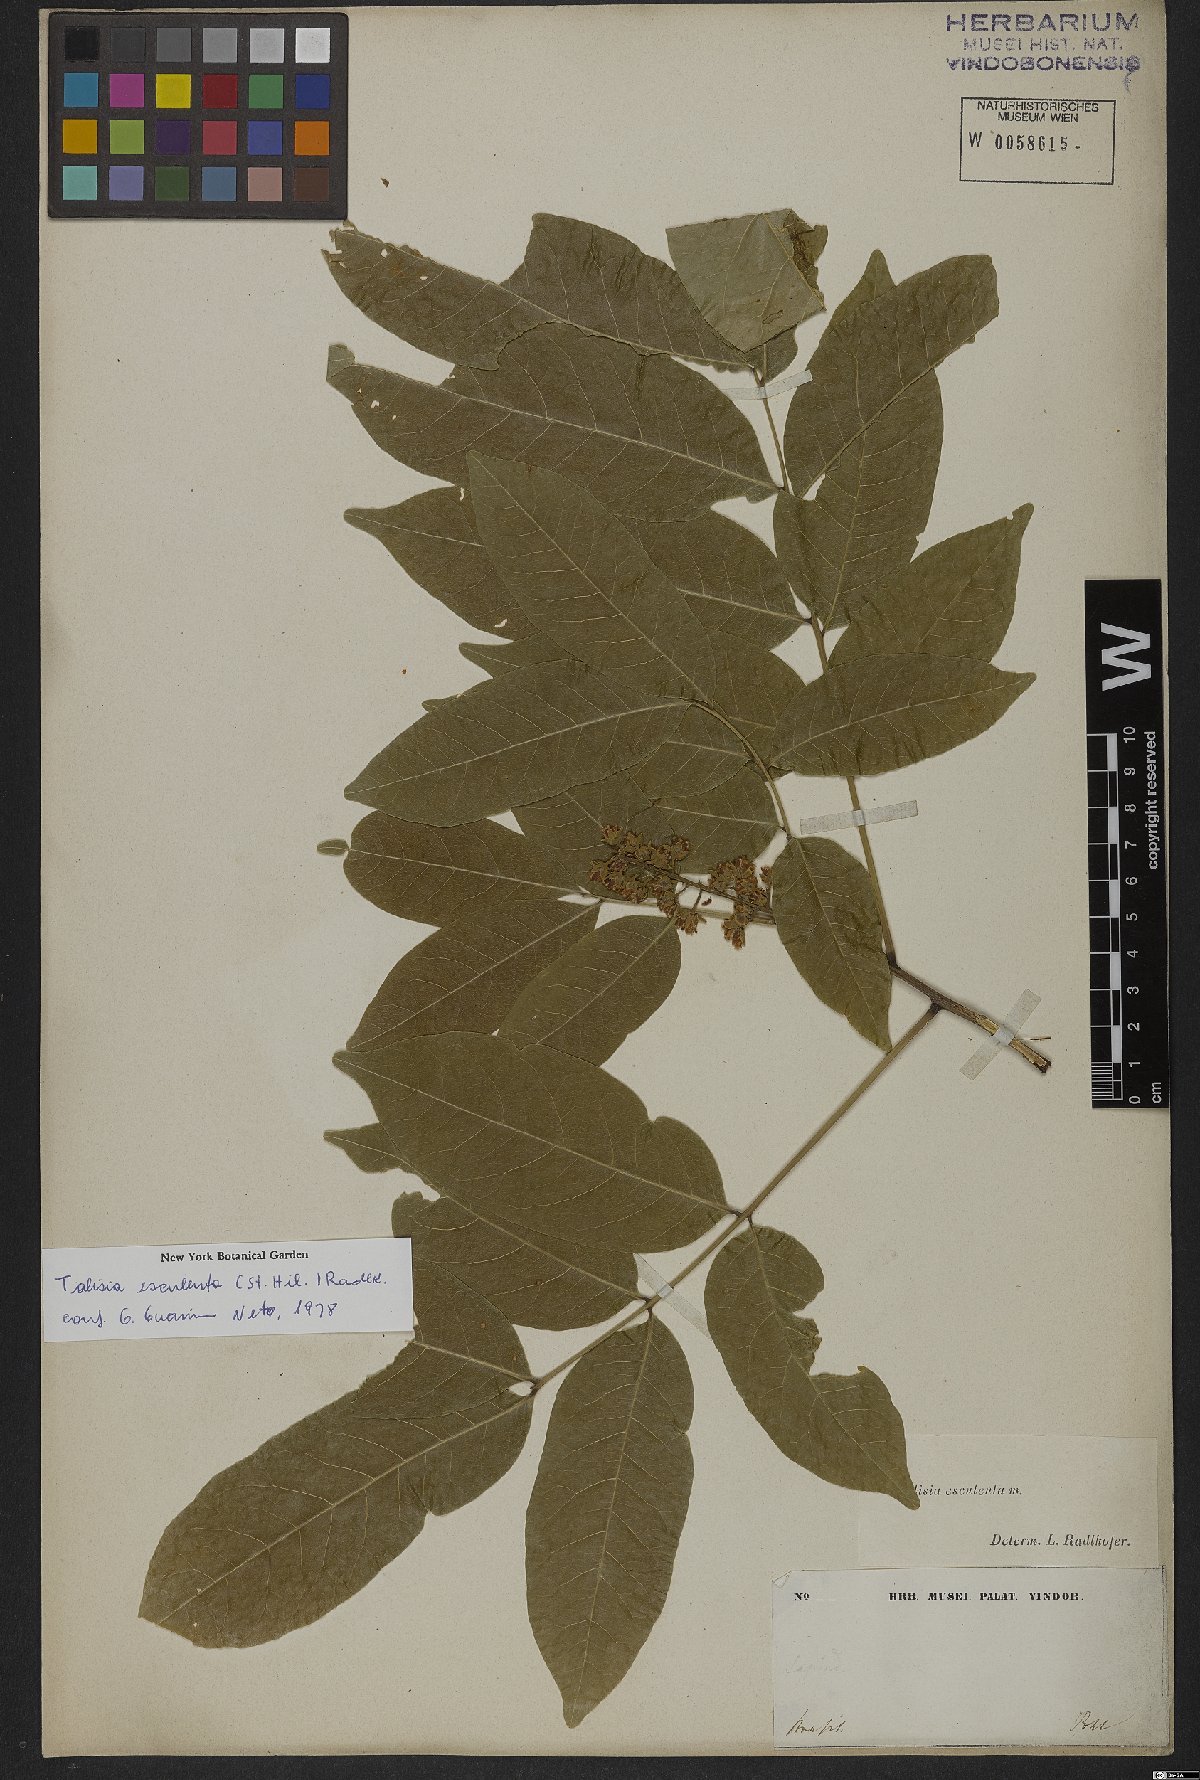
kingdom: Plantae
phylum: Tracheophyta
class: Magnoliopsida
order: Sapindales
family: Sapindaceae
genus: Talisia
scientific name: Talisia esculenta
